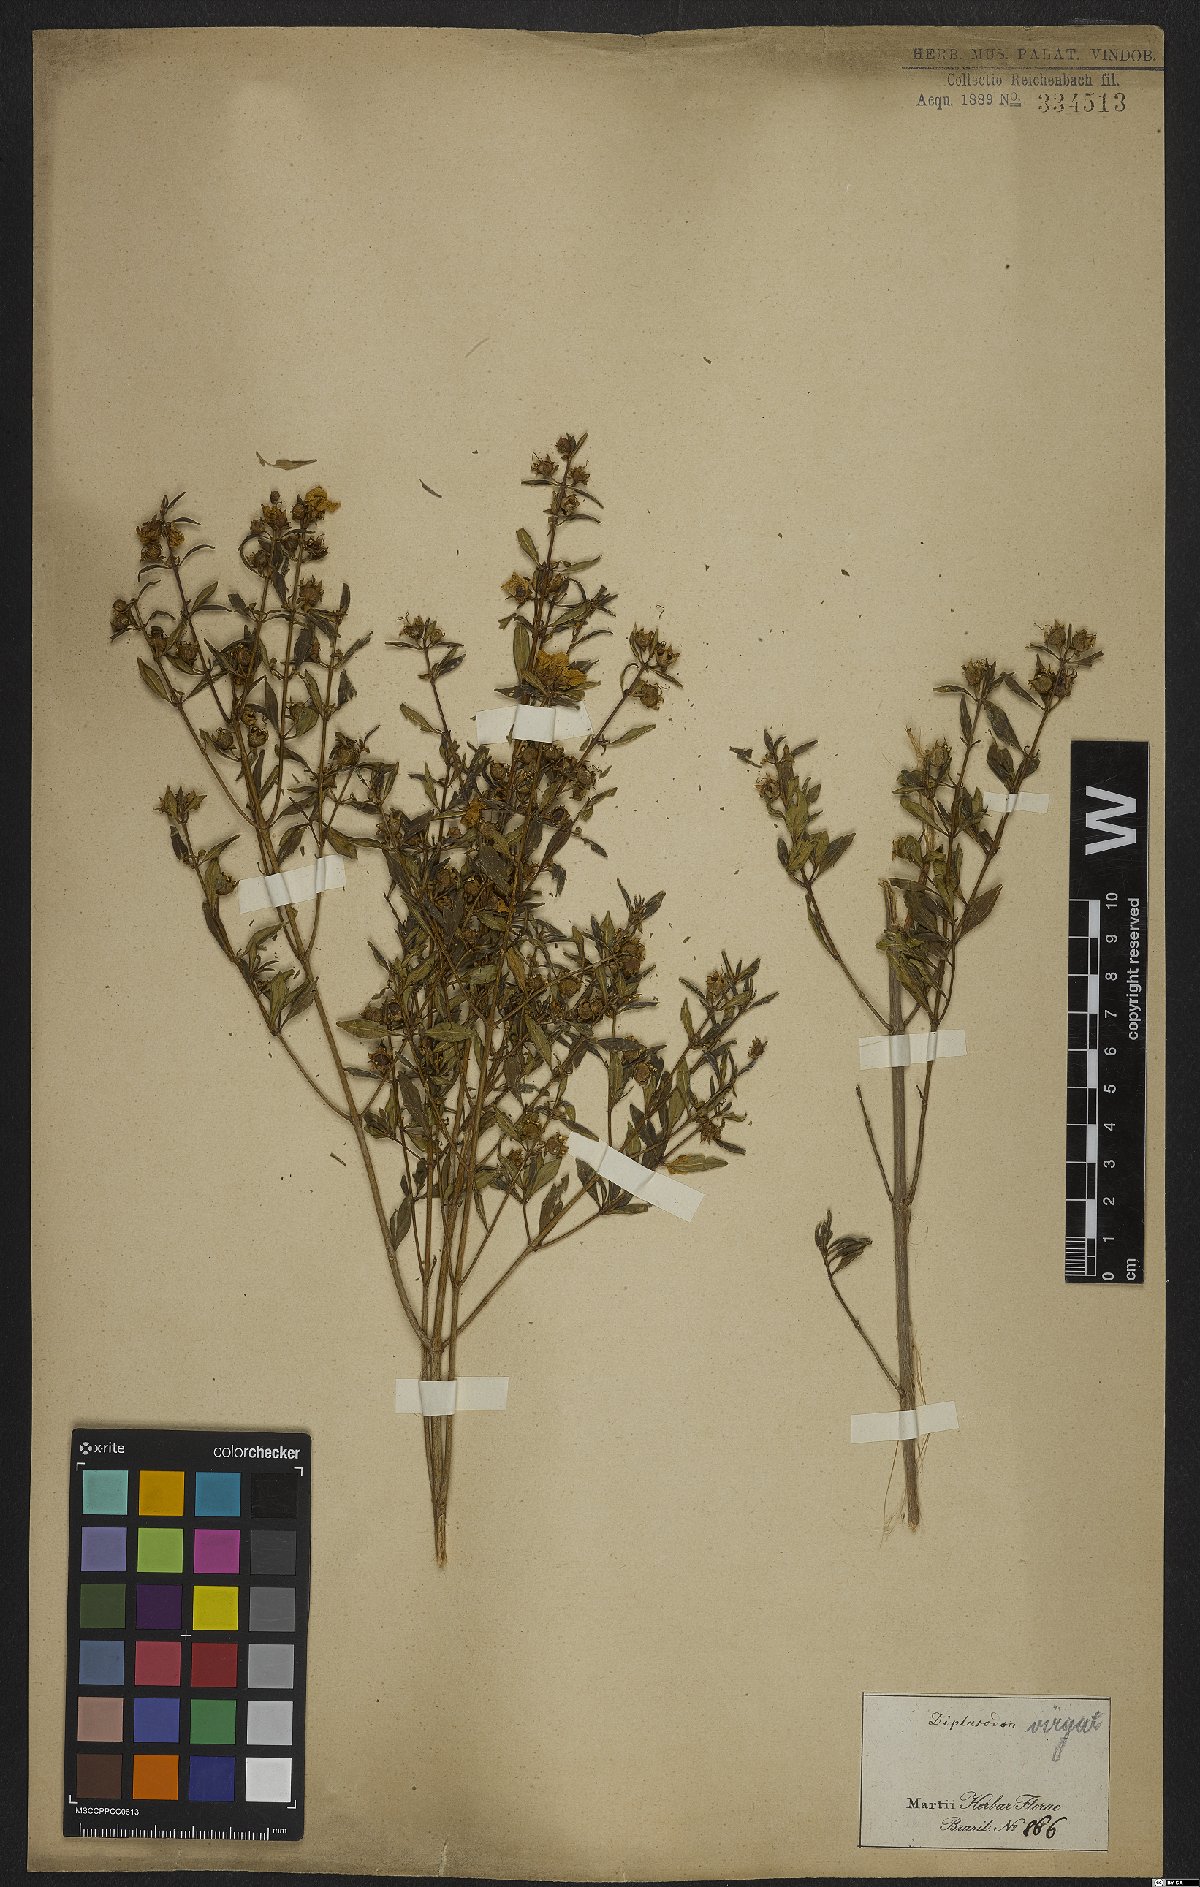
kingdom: Plantae
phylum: Tracheophyta
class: Magnoliopsida
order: Myrtales
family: Lythraceae
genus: Diplusodon
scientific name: Diplusodon virgatus
